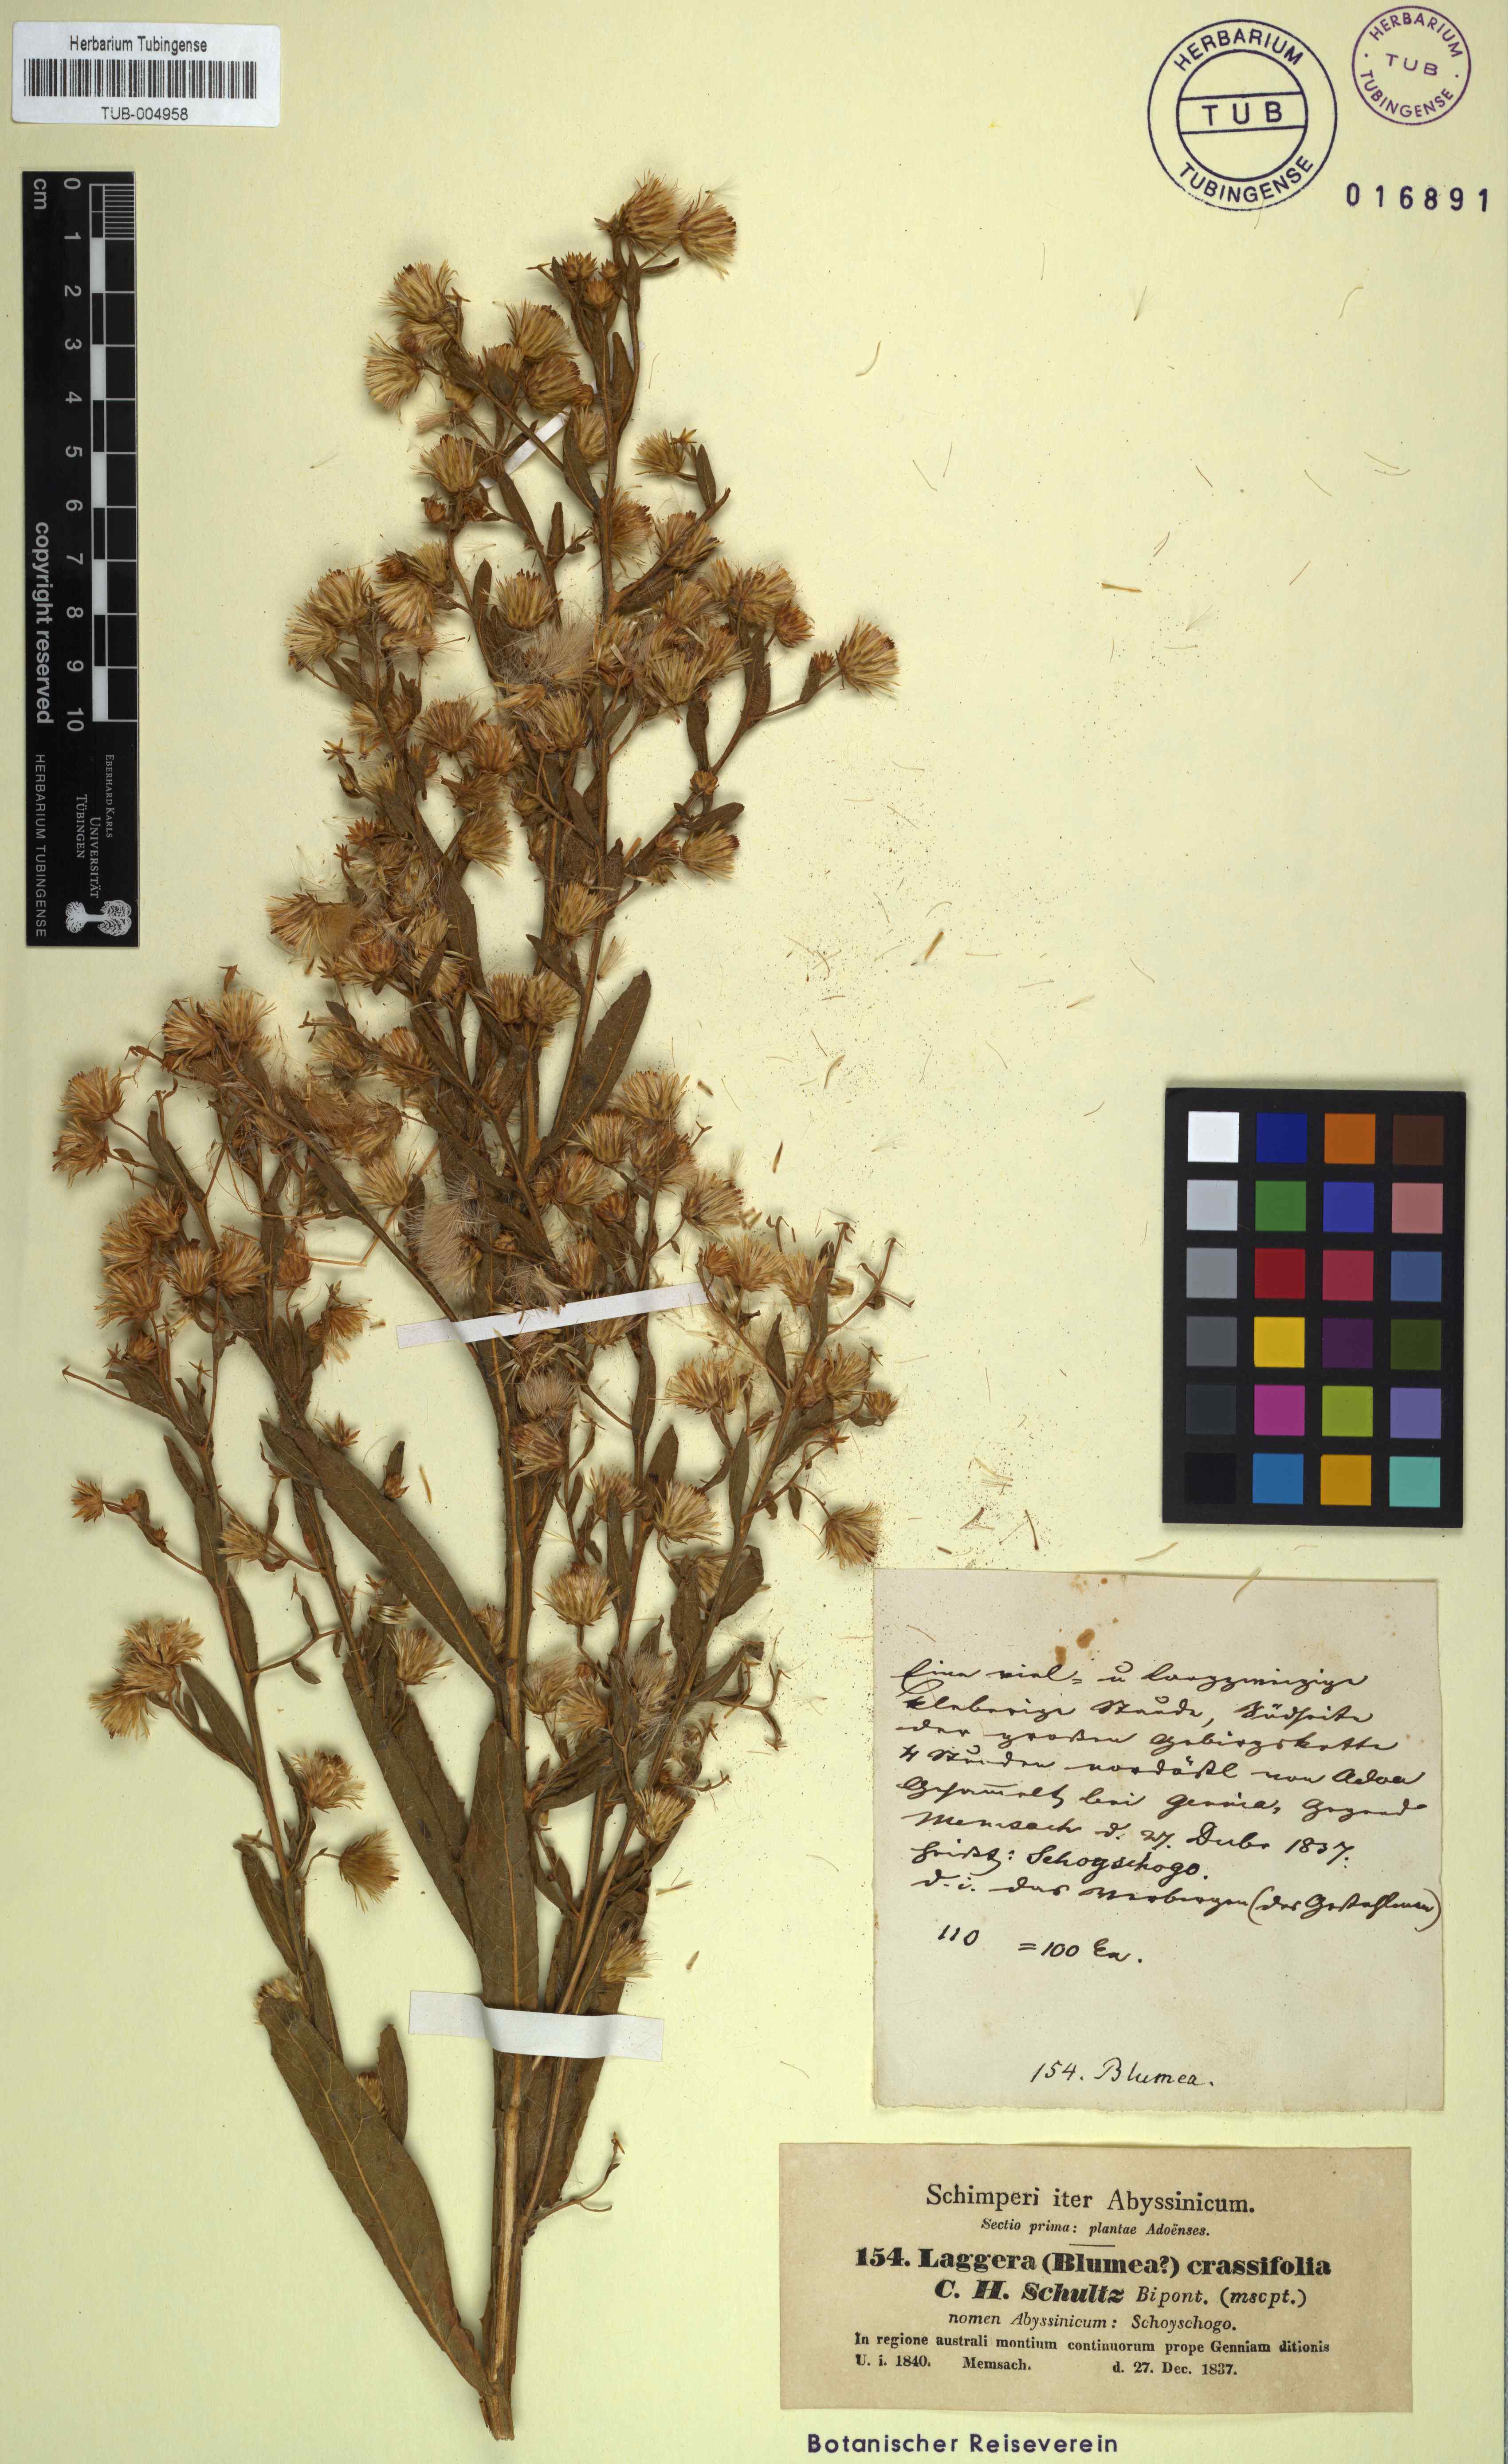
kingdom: Plantae
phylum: Tracheophyta
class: Magnoliopsida
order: Asterales
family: Asteraceae
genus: Laggera
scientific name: Laggera crassifolia
